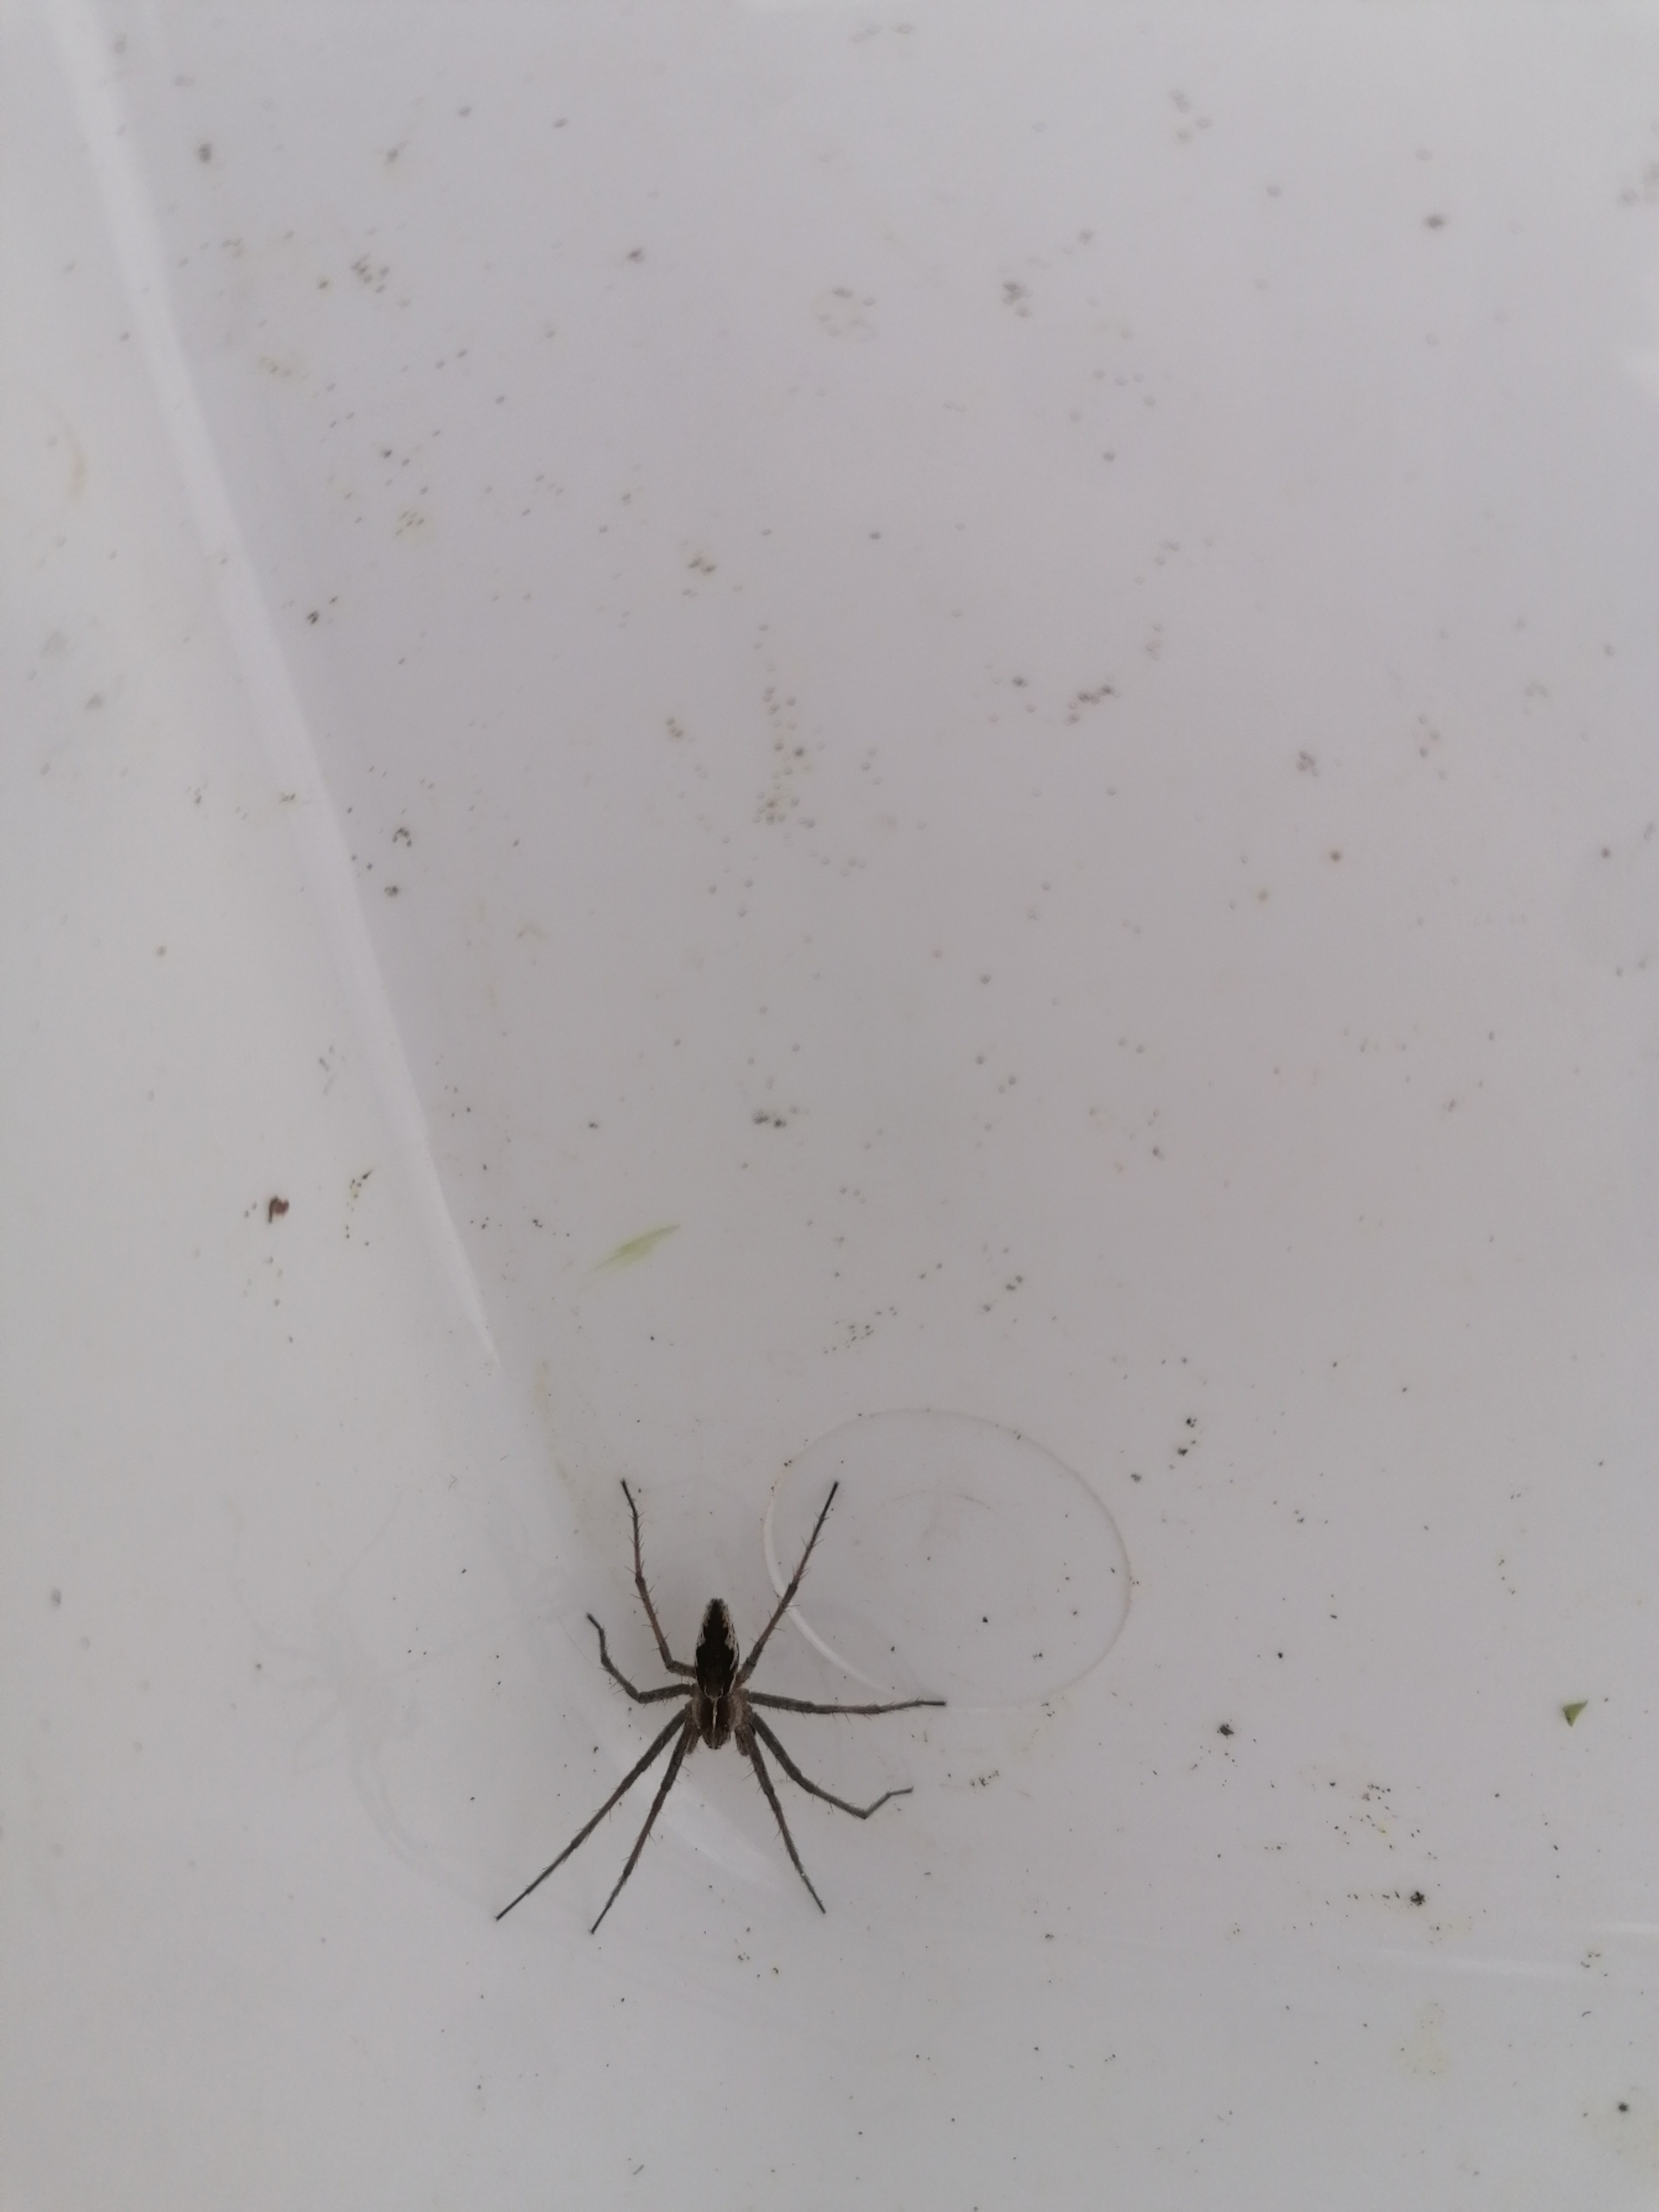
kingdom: Animalia
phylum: Arthropoda
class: Arachnida
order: Araneae
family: Pisauridae
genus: Pisaura
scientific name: Pisaura mirabilis
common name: Almindelig rovedderkop
